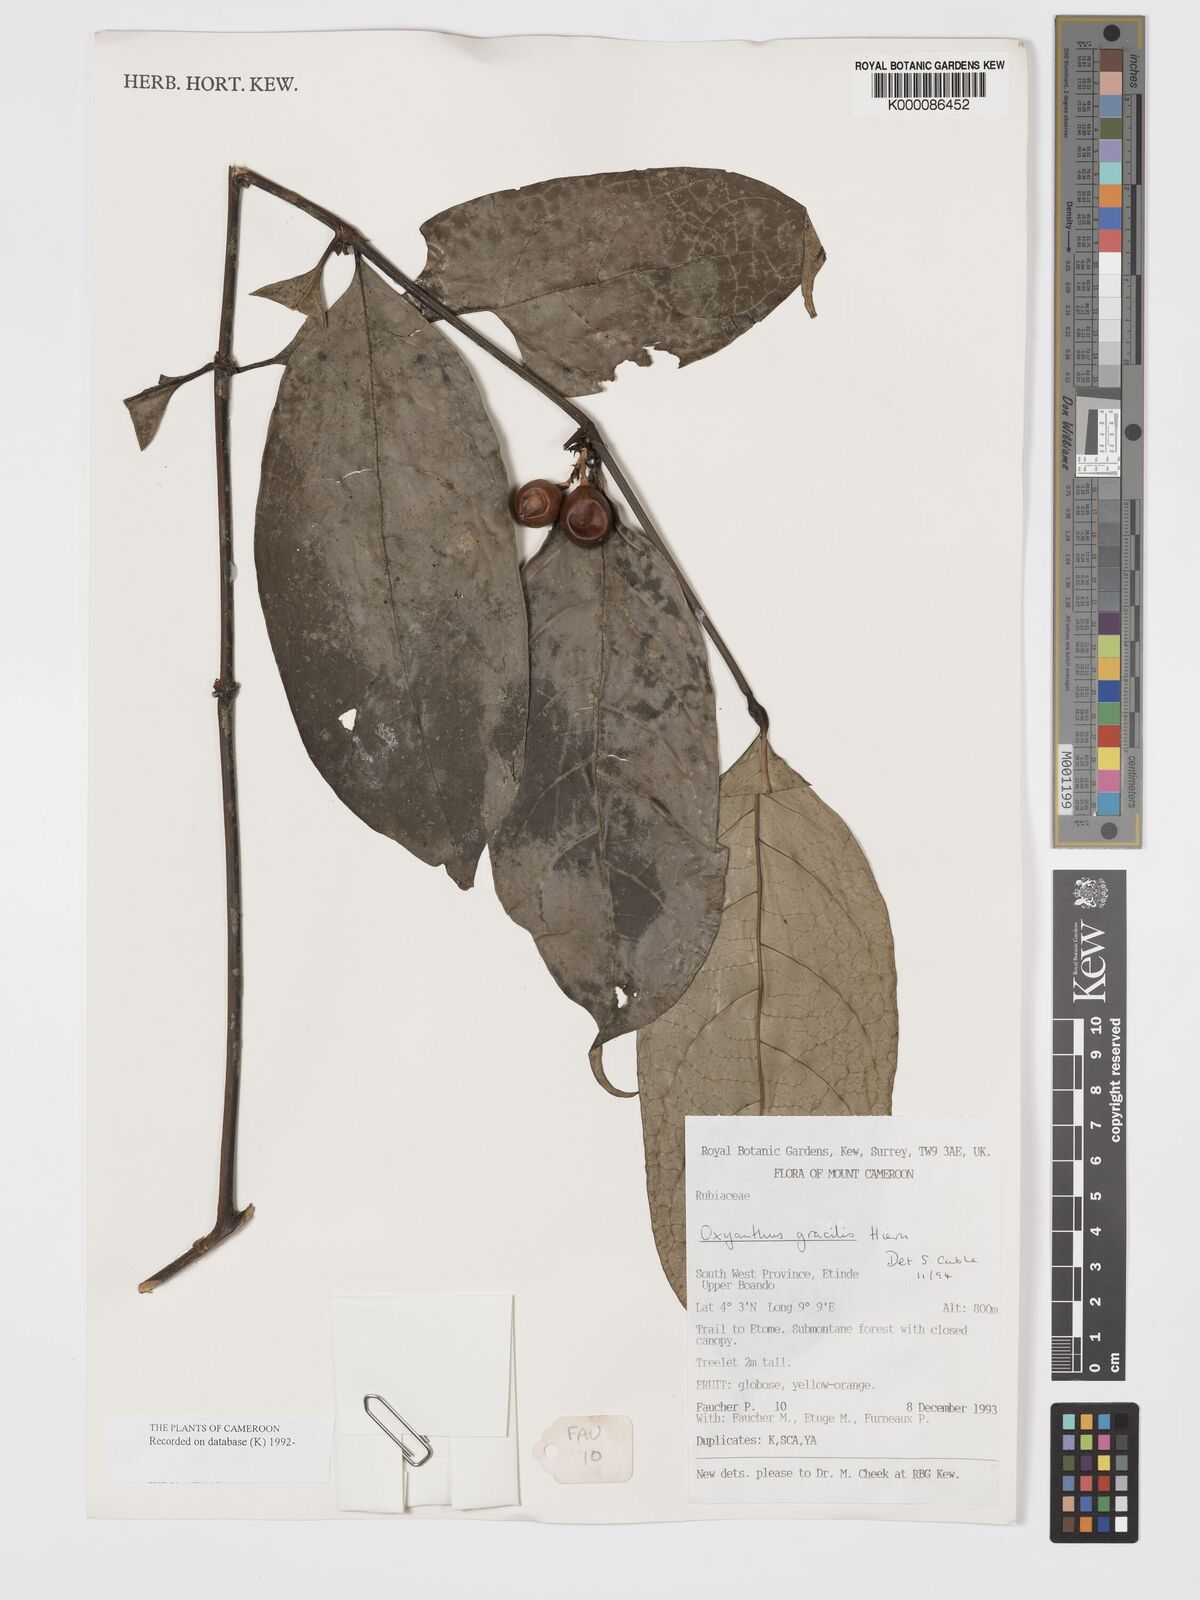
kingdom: Plantae
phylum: Tracheophyta
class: Magnoliopsida
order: Gentianales
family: Rubiaceae
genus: Oxyanthus
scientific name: Oxyanthus gracilis
